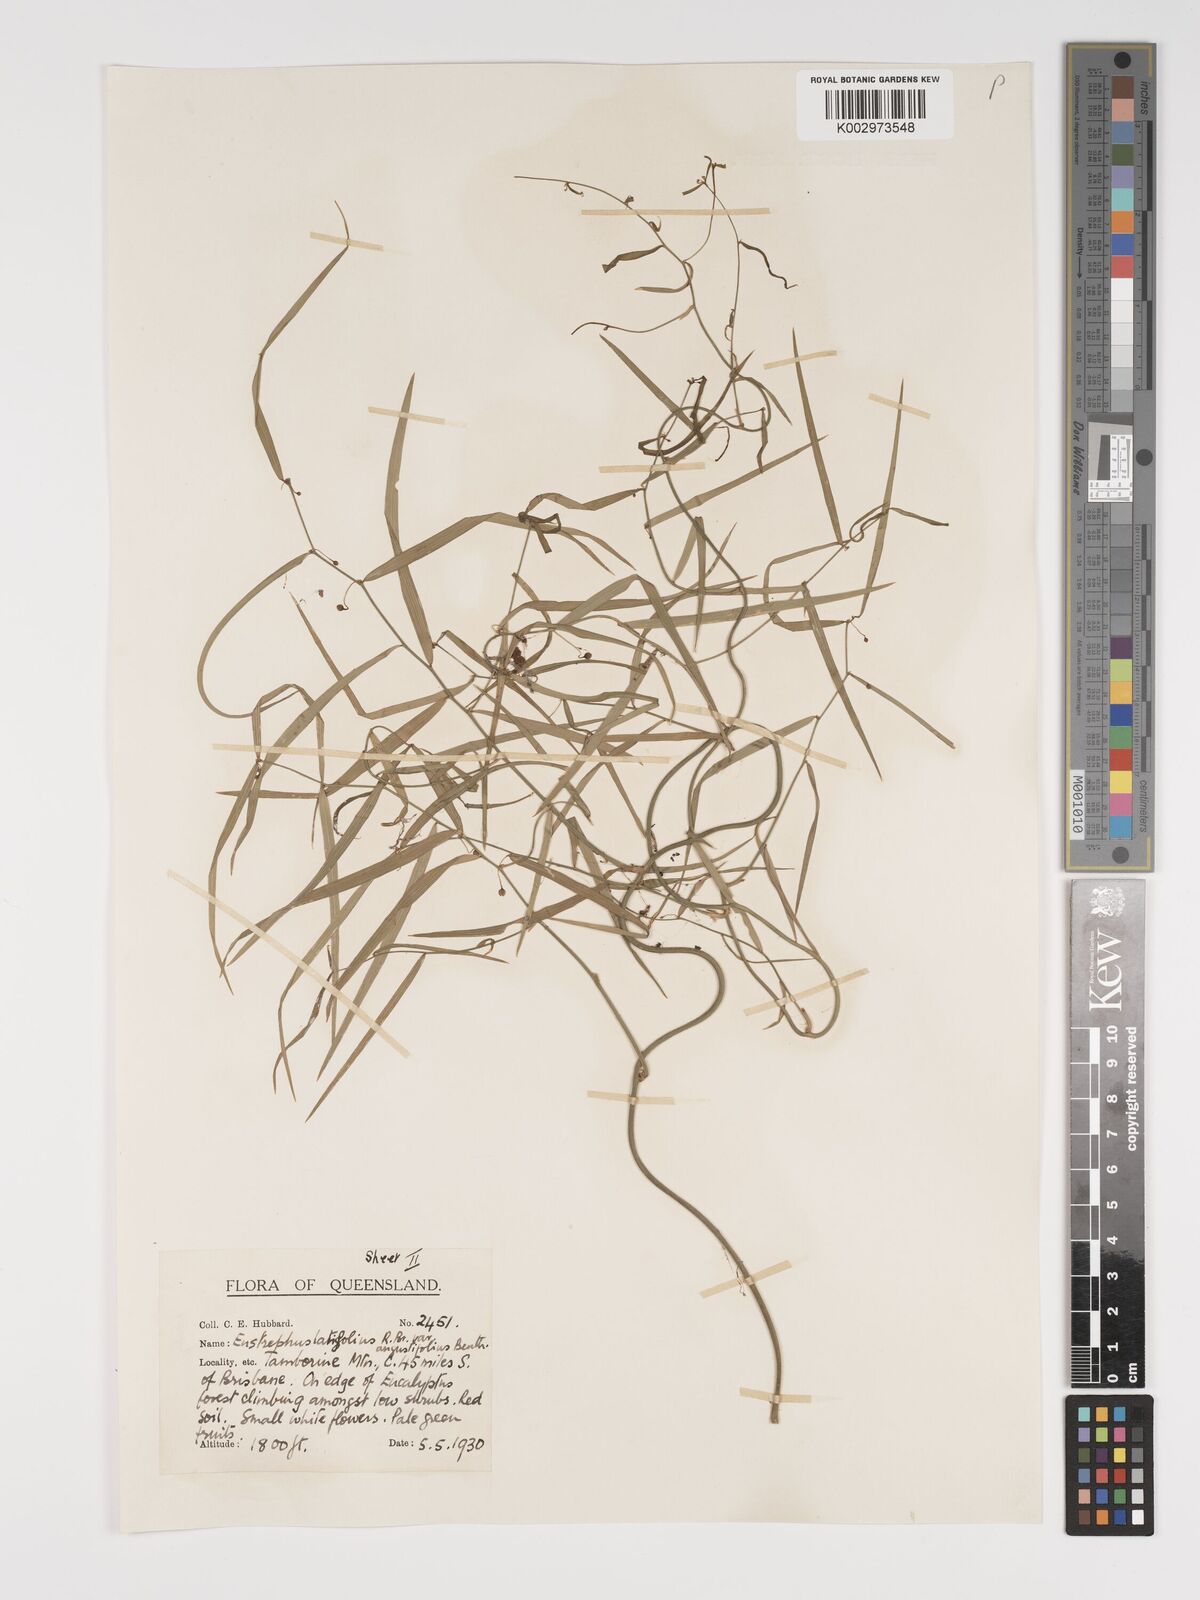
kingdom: Plantae
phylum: Tracheophyta
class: Liliopsida
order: Asparagales
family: Asparagaceae
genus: Eustrephus
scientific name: Eustrephus latifolius
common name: Orangevine
